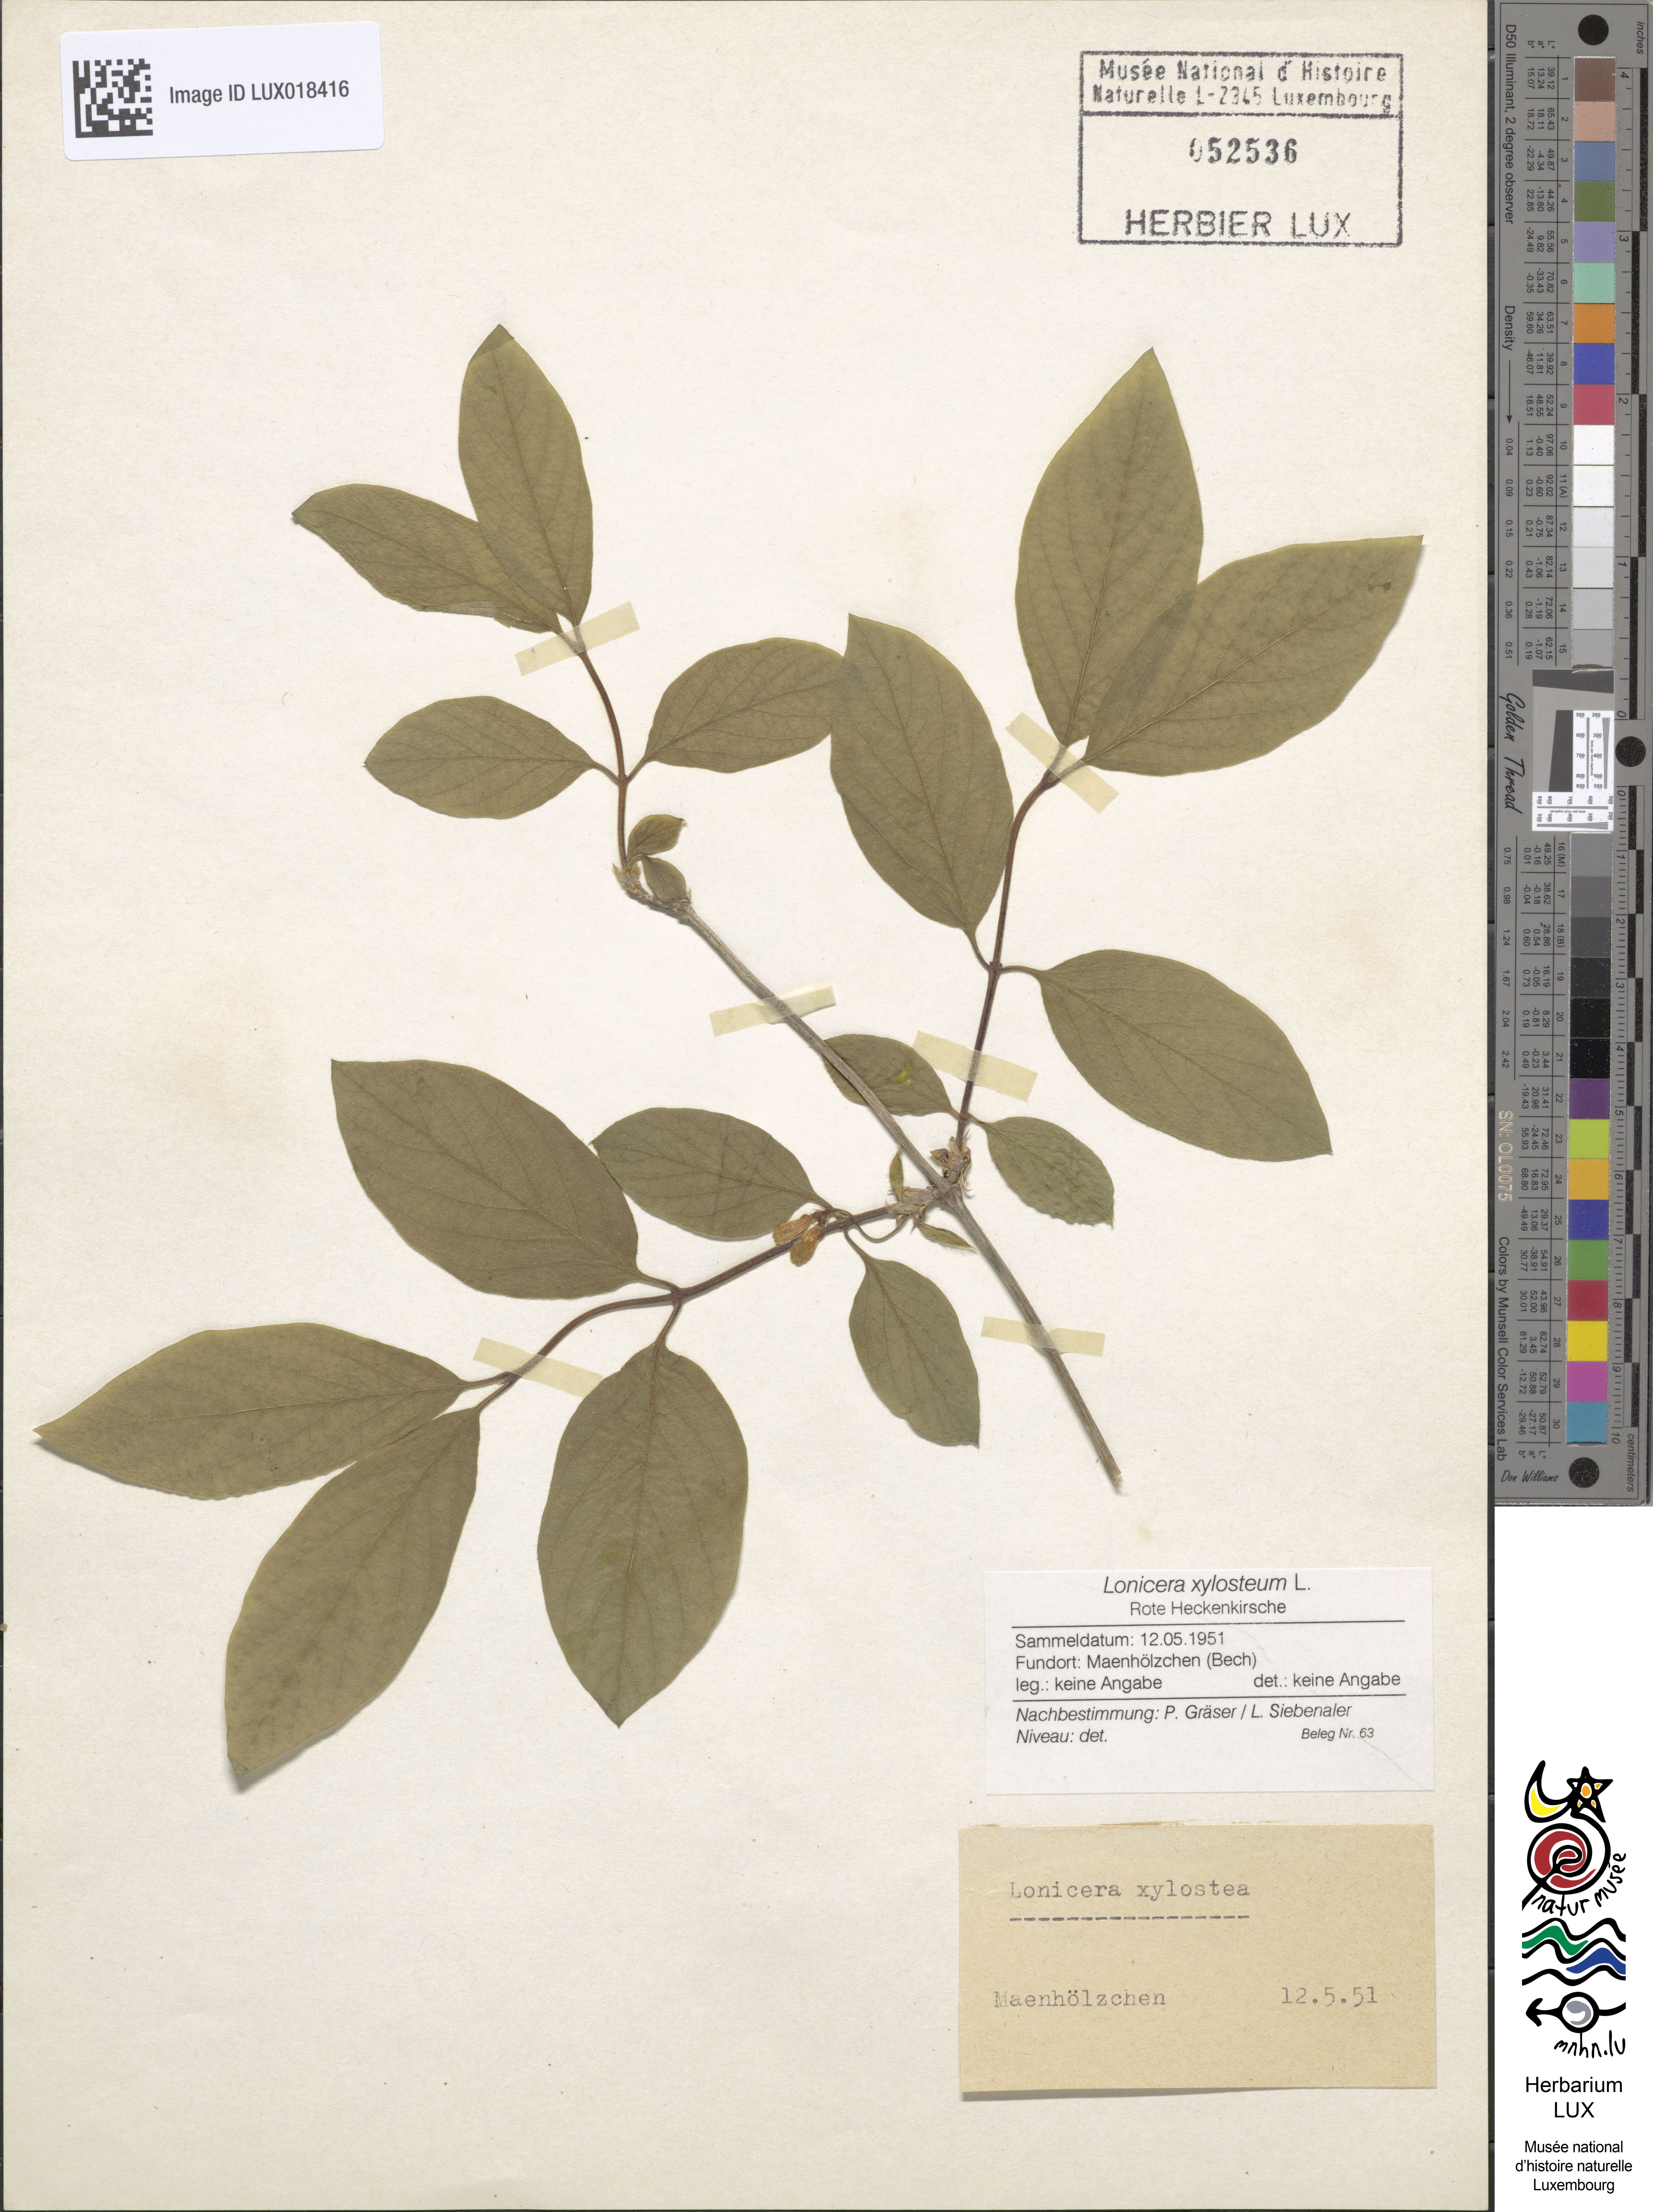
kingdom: Plantae
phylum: Tracheophyta
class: Magnoliopsida
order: Dipsacales
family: Caprifoliaceae
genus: Lonicera
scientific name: Lonicera xylosteum
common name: Fly honeysuckle
